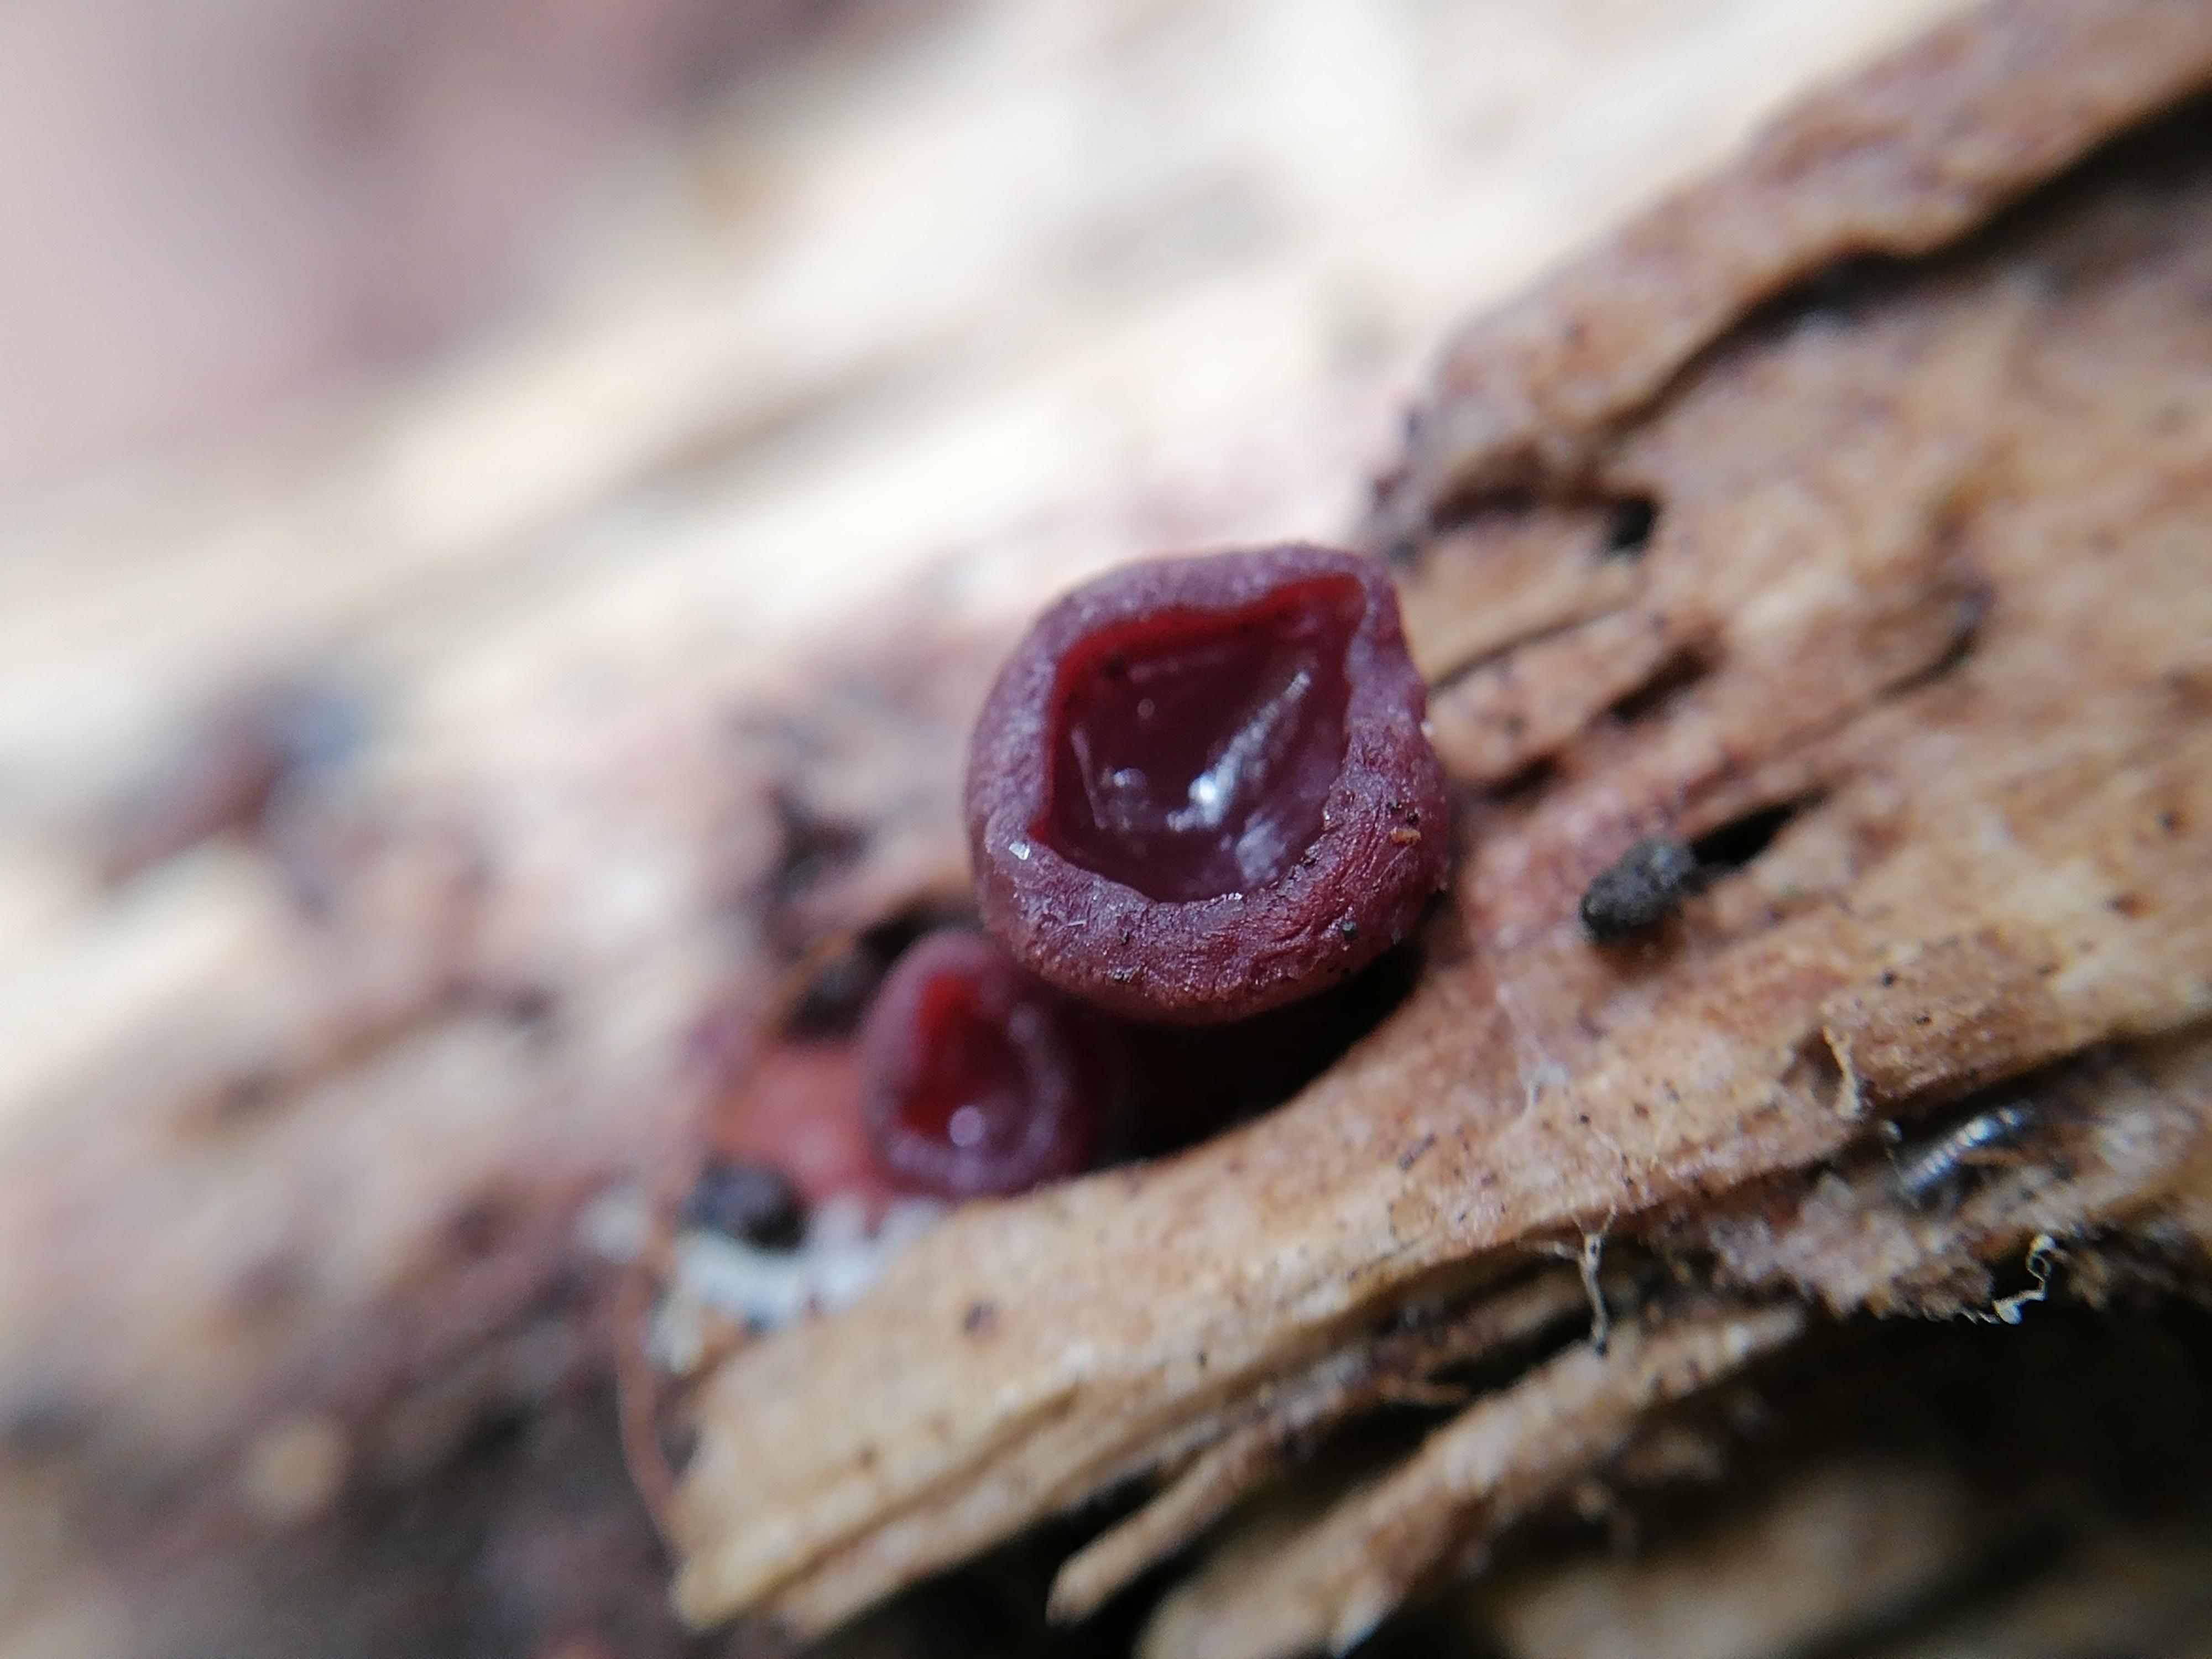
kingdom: Fungi
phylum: Ascomycota
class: Leotiomycetes
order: Helotiales
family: Gelatinodiscaceae
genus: Ascocoryne
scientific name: Ascocoryne
